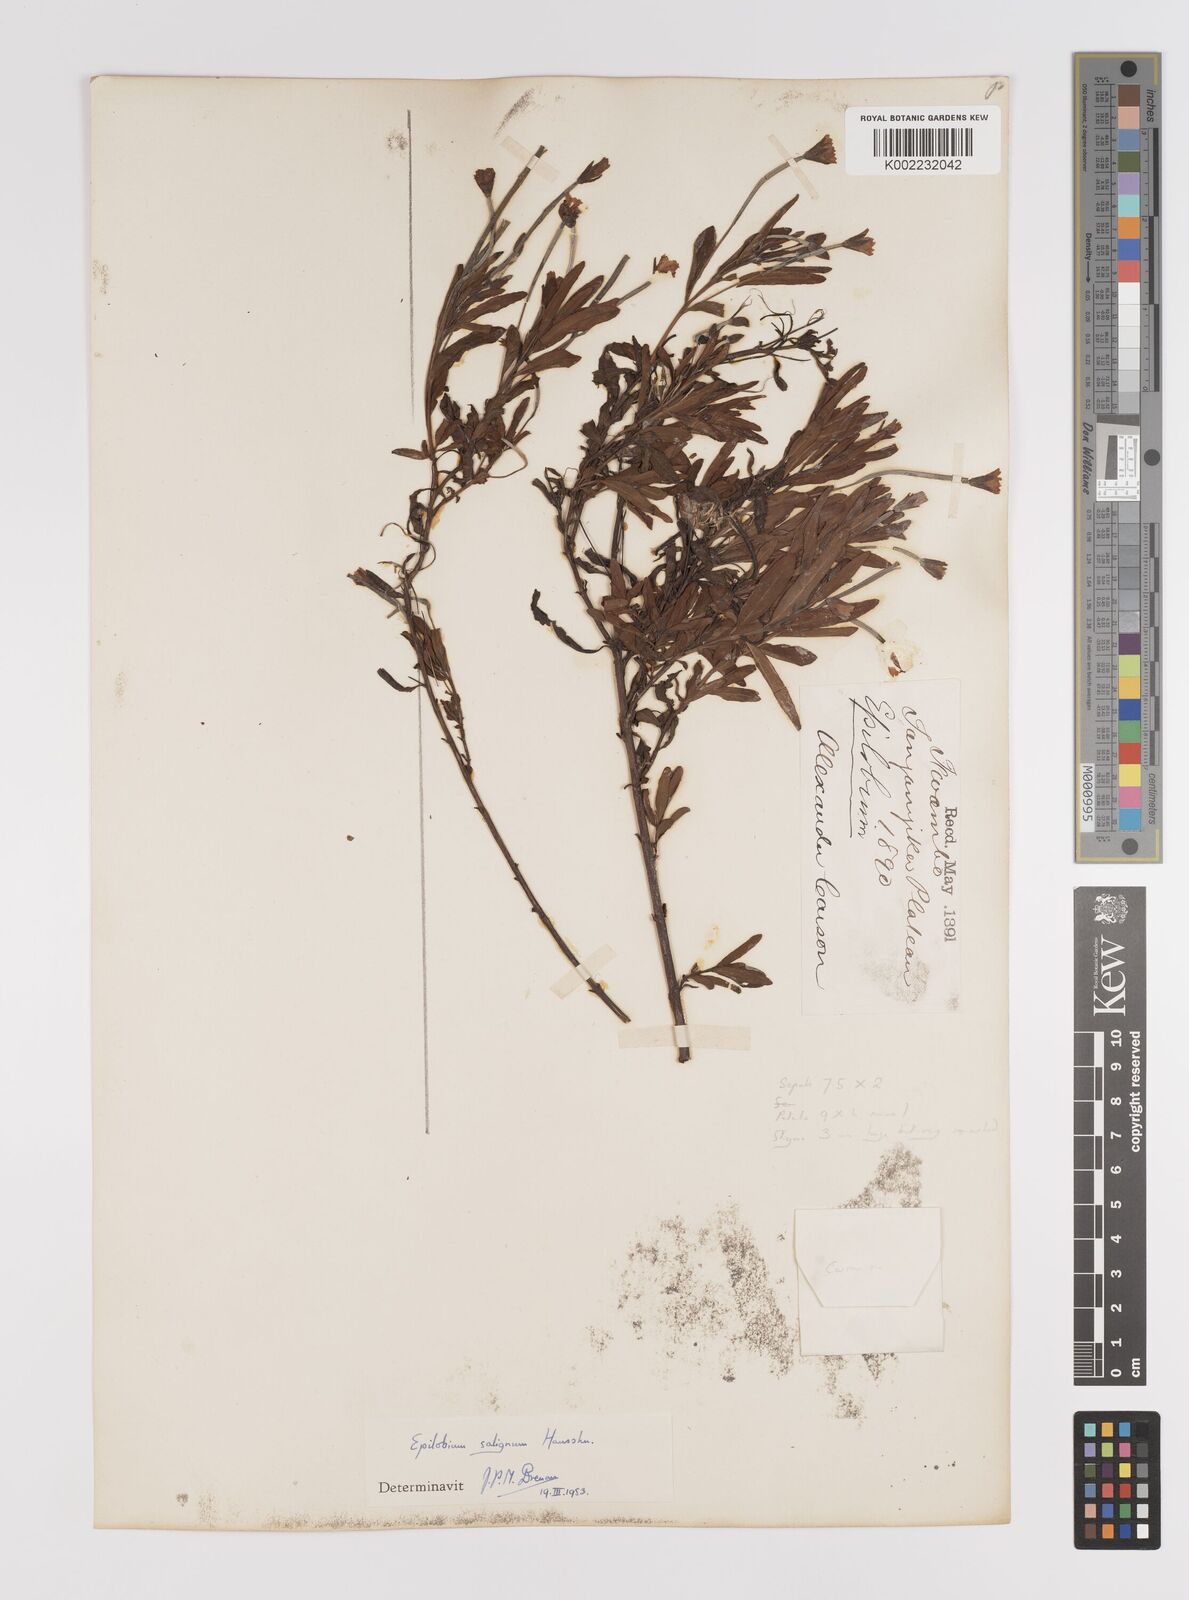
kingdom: Plantae
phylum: Tracheophyta
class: Magnoliopsida
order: Myrtales
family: Onagraceae
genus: Epilobium
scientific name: Epilobium salignum
